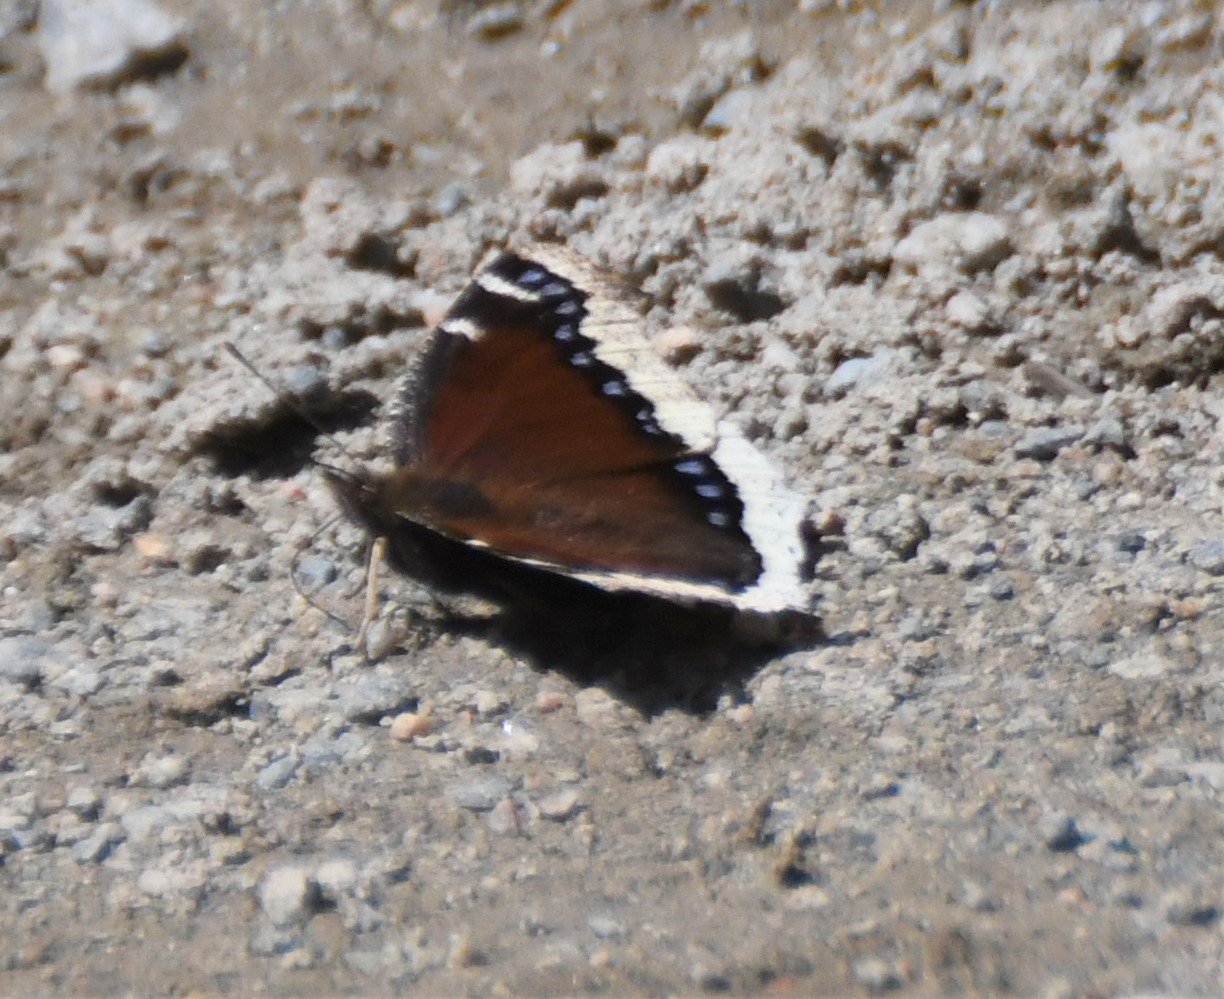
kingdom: Animalia
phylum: Arthropoda
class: Insecta
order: Lepidoptera
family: Nymphalidae
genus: Nymphalis
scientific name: Nymphalis antiopa
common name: Mourning Cloak
